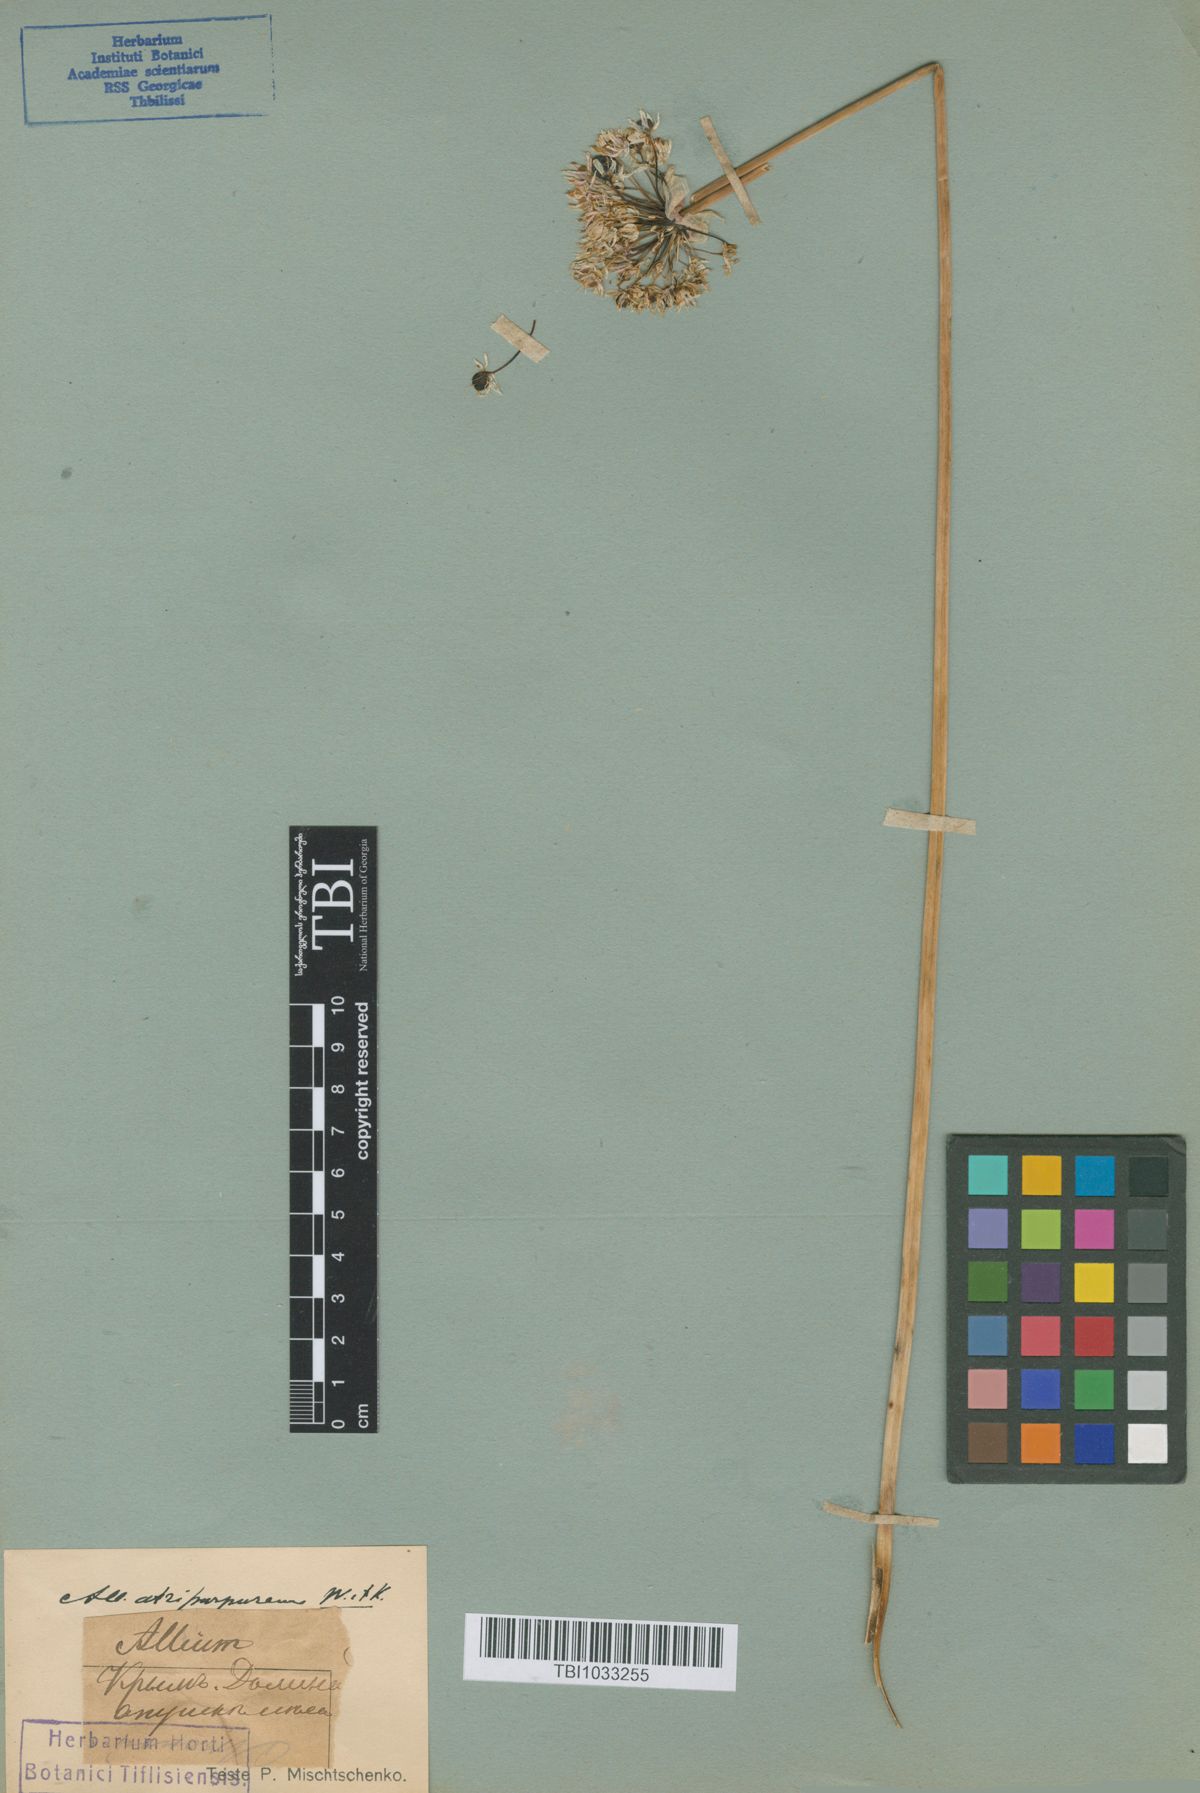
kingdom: Plantae
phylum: Tracheophyta
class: Liliopsida
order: Asparagales
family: Amaryllidaceae
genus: Allium
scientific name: Allium decipiens
